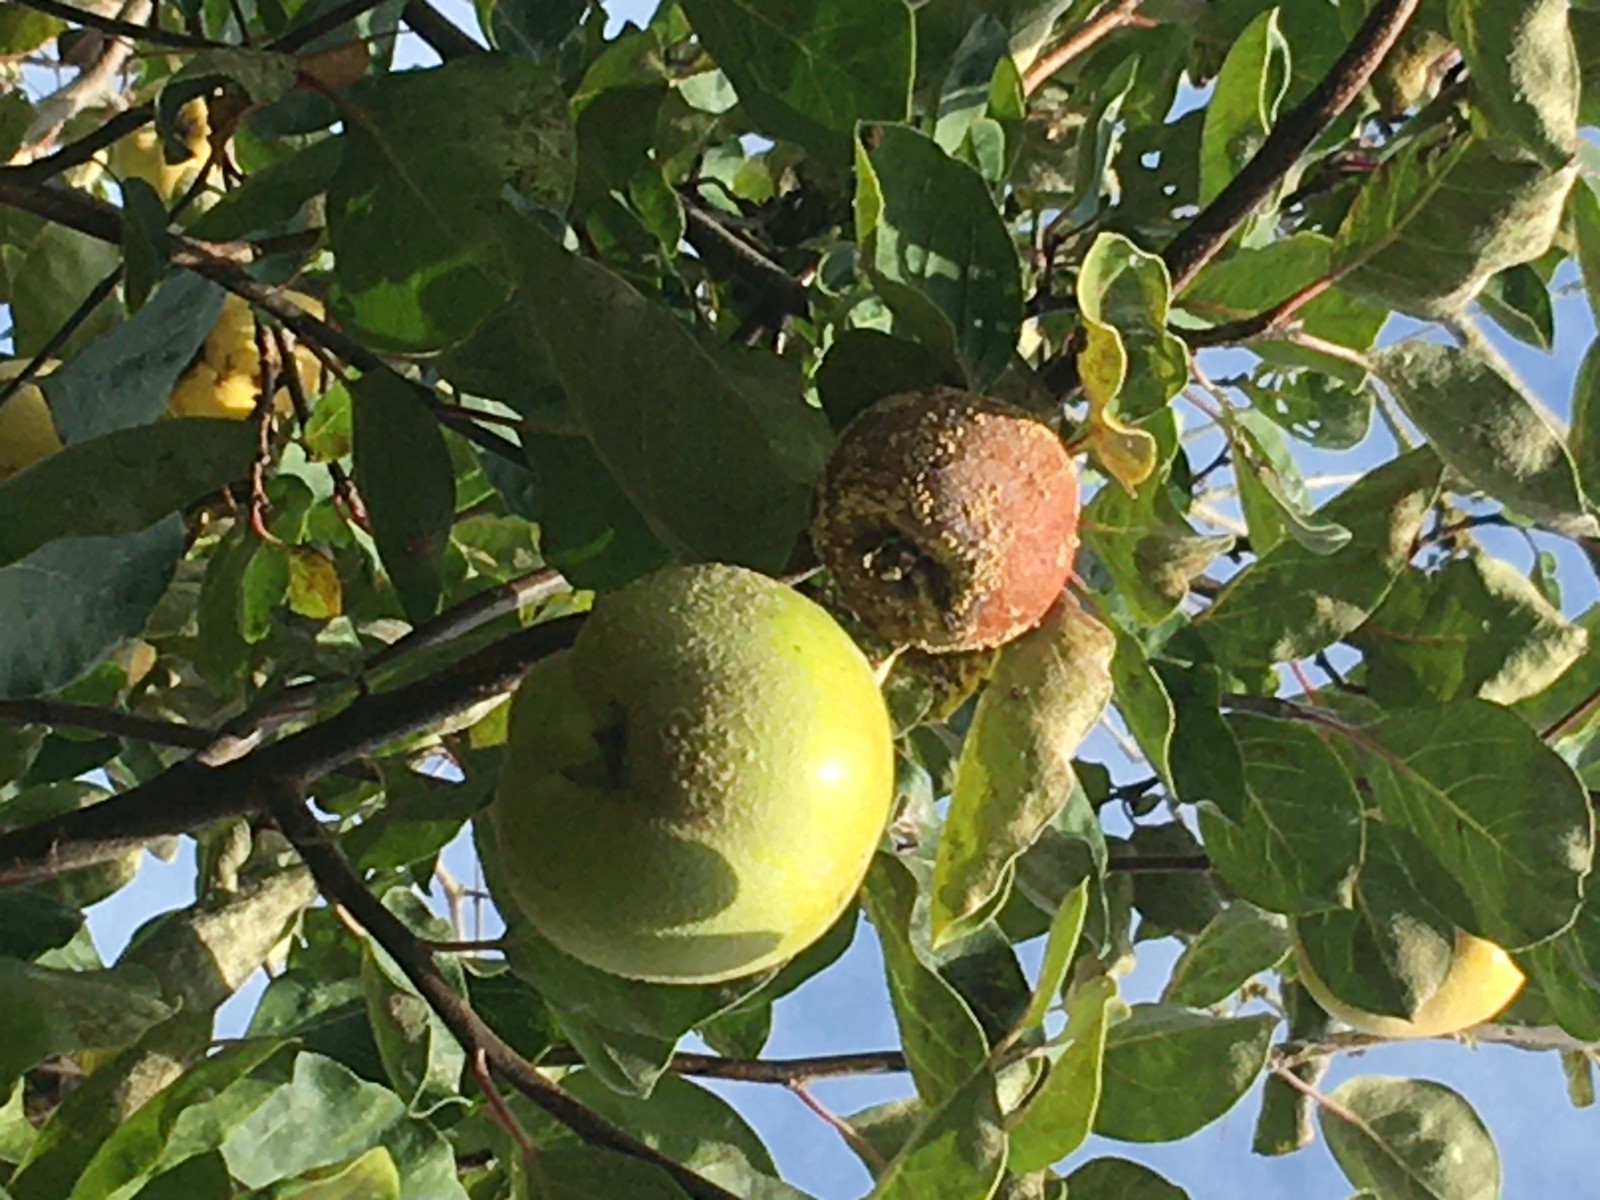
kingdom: Fungi
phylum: Ascomycota
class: Leotiomycetes
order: Helotiales
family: Sclerotiniaceae
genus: Monilinia
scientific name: Monilinia fructigena
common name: æble-knoldskive
